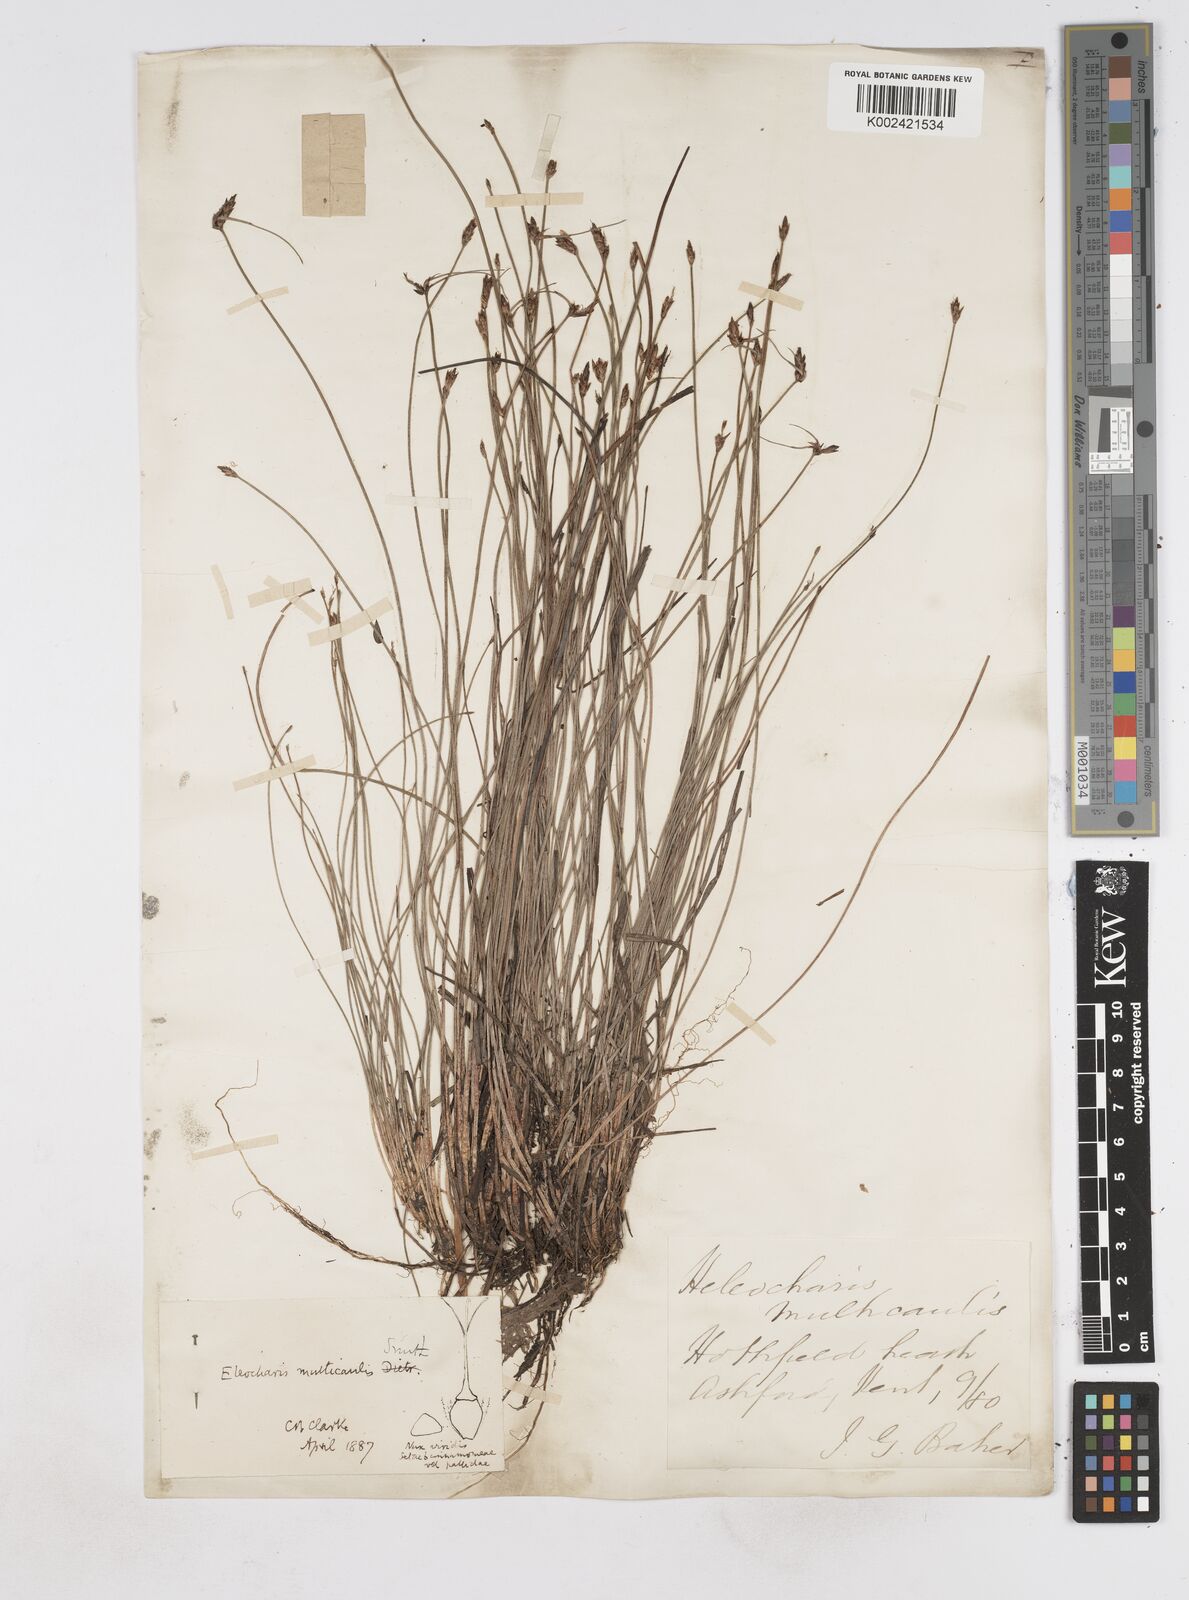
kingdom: Plantae
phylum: Tracheophyta
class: Liliopsida
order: Poales
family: Cyperaceae
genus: Eleocharis
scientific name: Eleocharis multicaulis
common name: Many-stalked spike-rush
